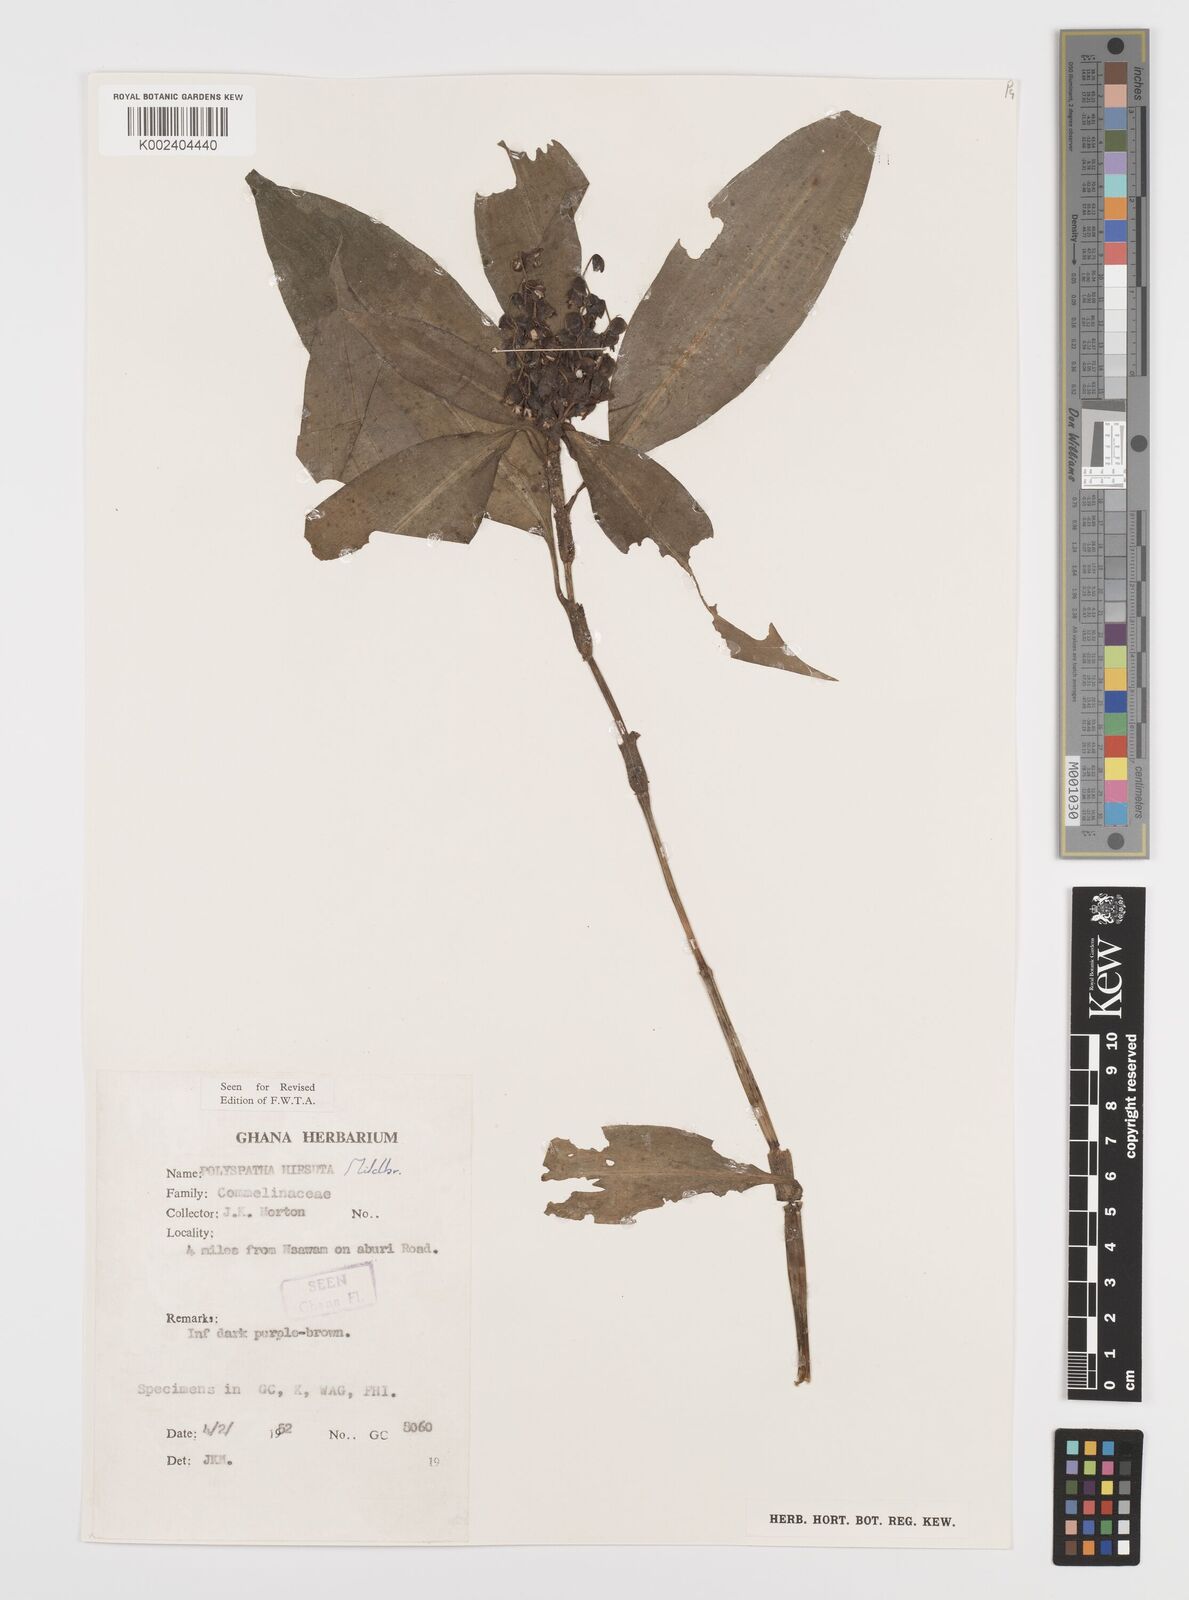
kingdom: Plantae
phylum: Tracheophyta
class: Liliopsida
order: Commelinales
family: Commelinaceae
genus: Polyspatha
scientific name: Polyspatha hirsuta
